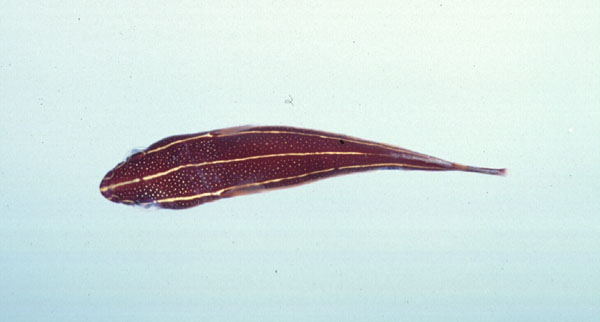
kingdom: Animalia
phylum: Chordata
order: Gobiesociformes
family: Gobiesocidae
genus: Lepadichthys
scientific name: Lepadichthys
